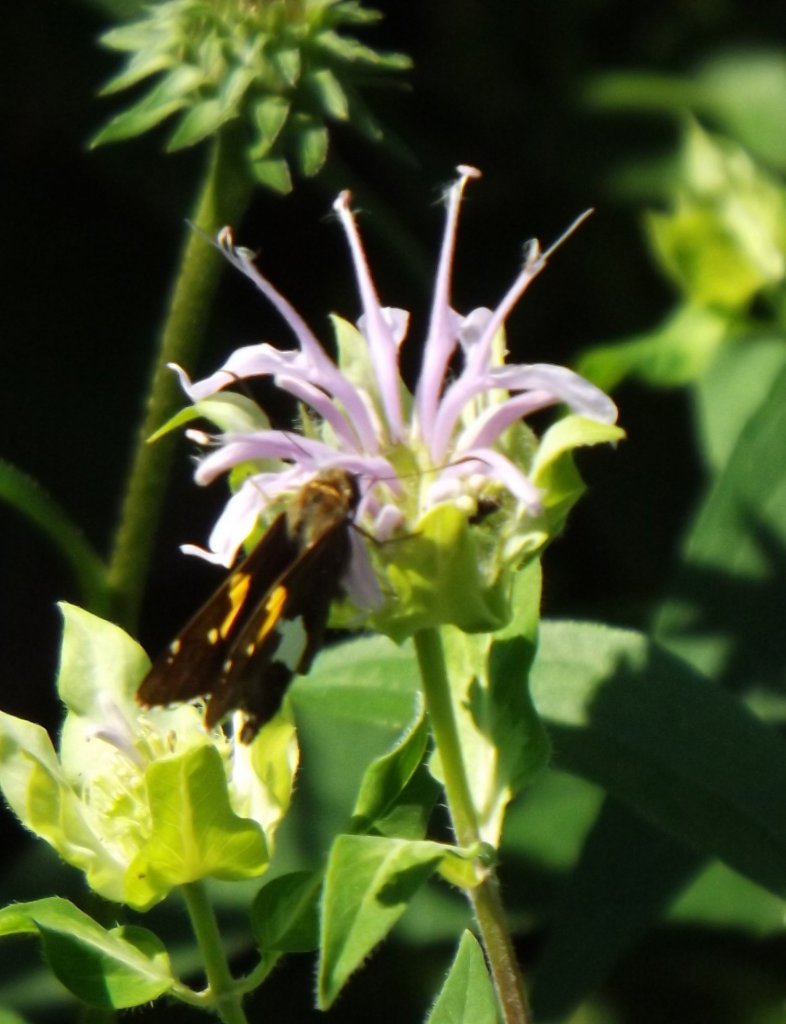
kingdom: Animalia
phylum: Arthropoda
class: Insecta
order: Lepidoptera
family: Hesperiidae
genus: Epargyreus
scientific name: Epargyreus clarus
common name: Silver-spotted Skipper
